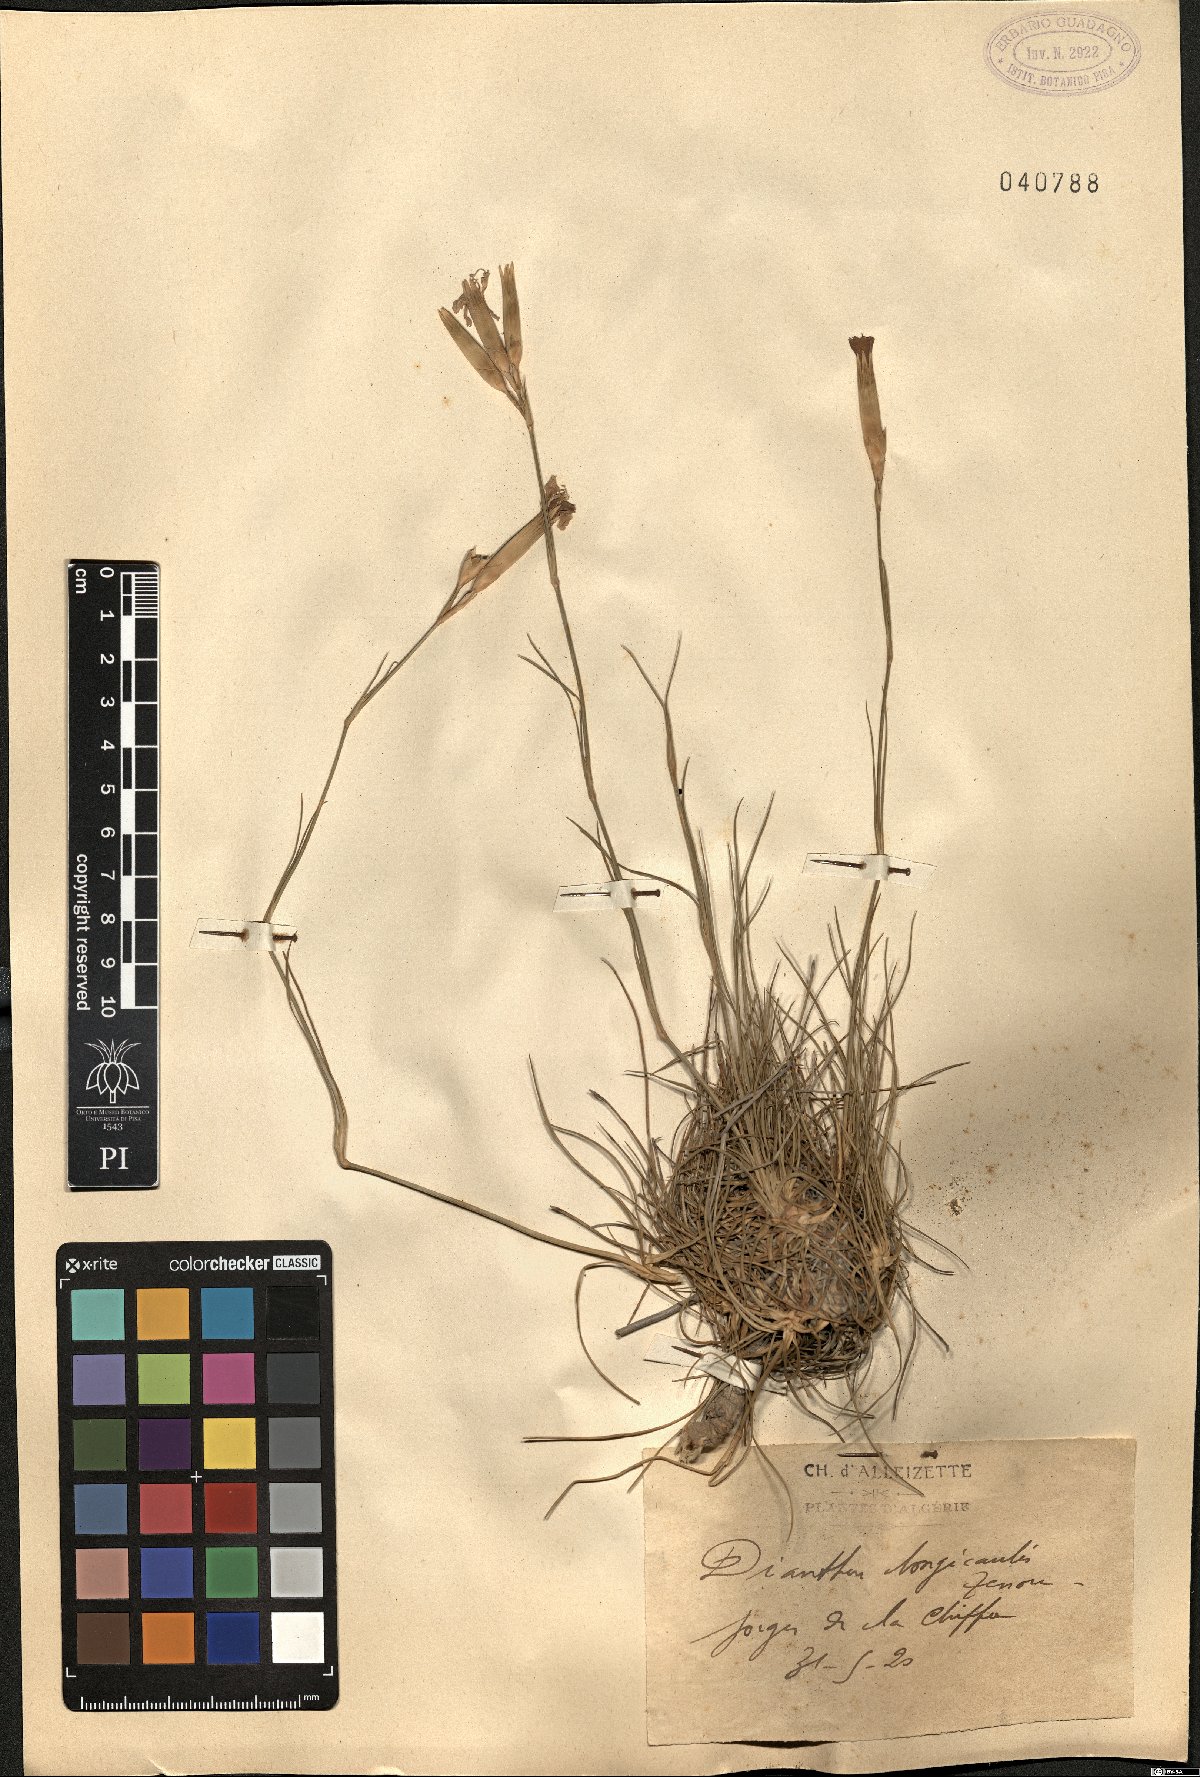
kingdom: Plantae
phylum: Tracheophyta
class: Magnoliopsida
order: Caryophyllales
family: Caryophyllaceae
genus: Dianthus
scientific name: Dianthus virgineus
